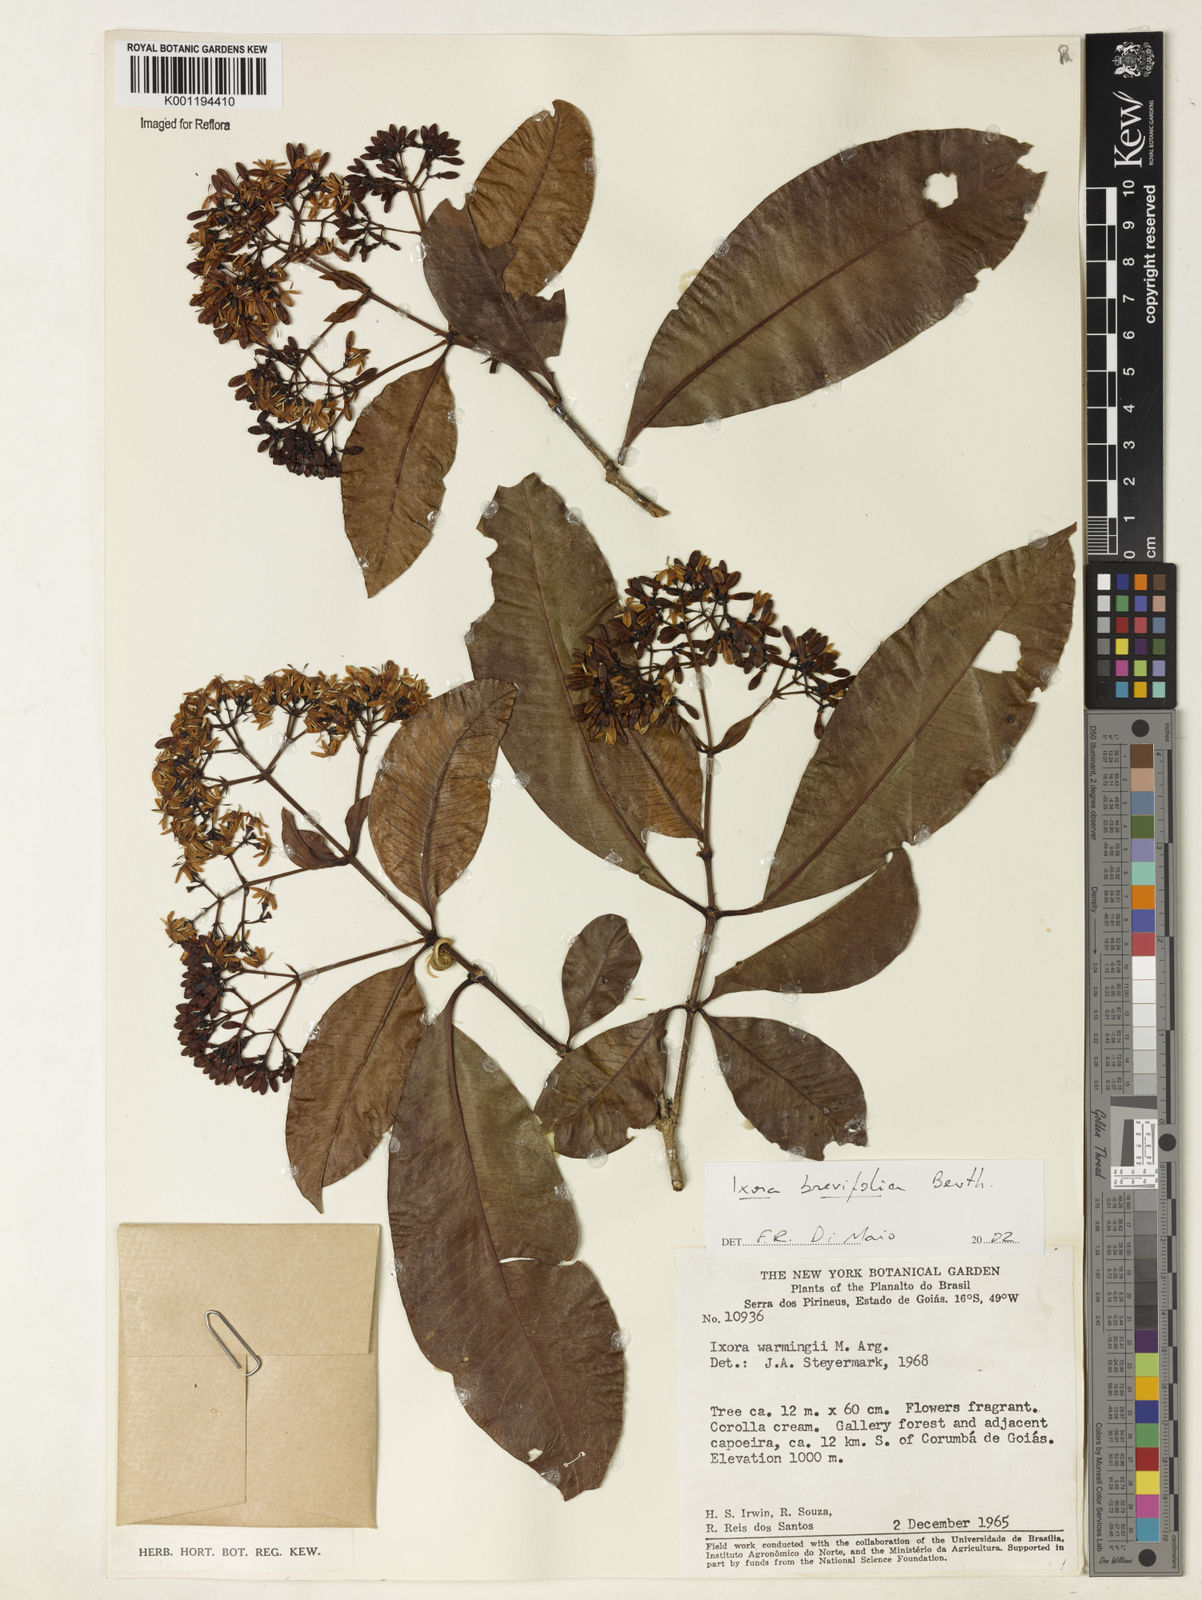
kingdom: Plantae
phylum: Tracheophyta
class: Magnoliopsida
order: Gentianales
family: Rubiaceae
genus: Ixora
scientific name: Ixora brevifolia
